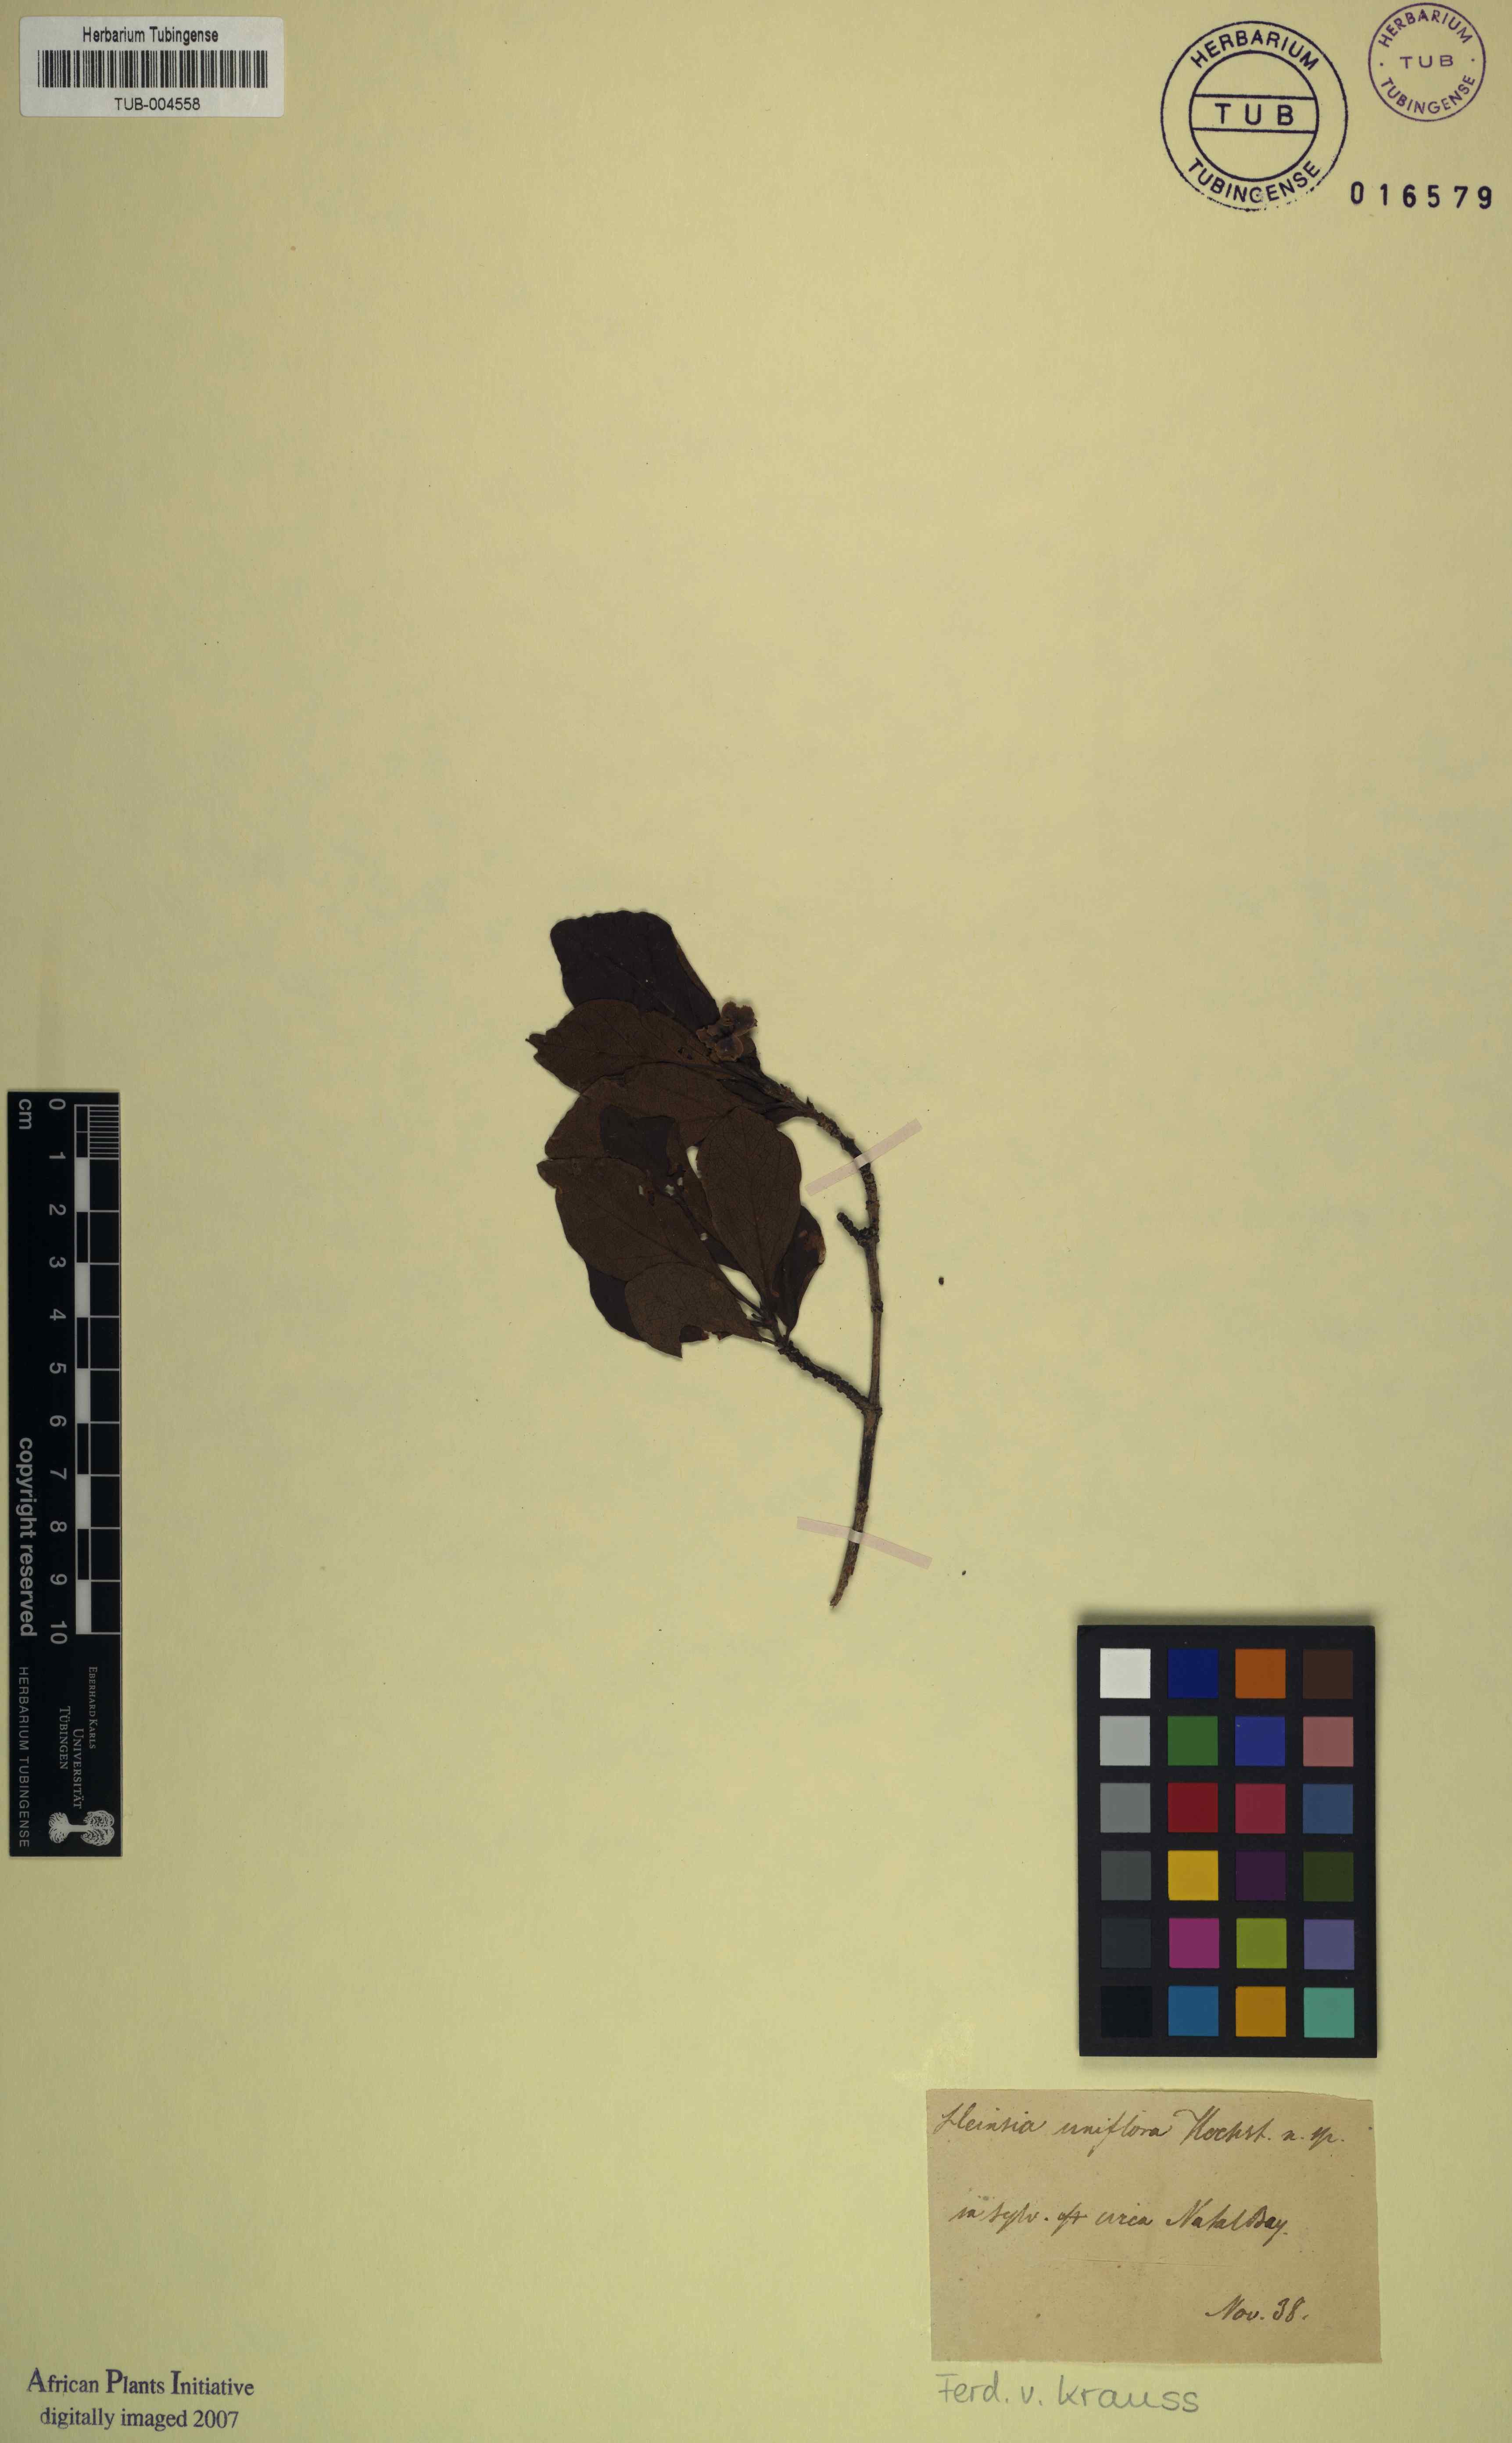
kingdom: Plantae
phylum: Tracheophyta
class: Magnoliopsida
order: Gentianales
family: Rubiaceae
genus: Heinsia
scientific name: Heinsia
